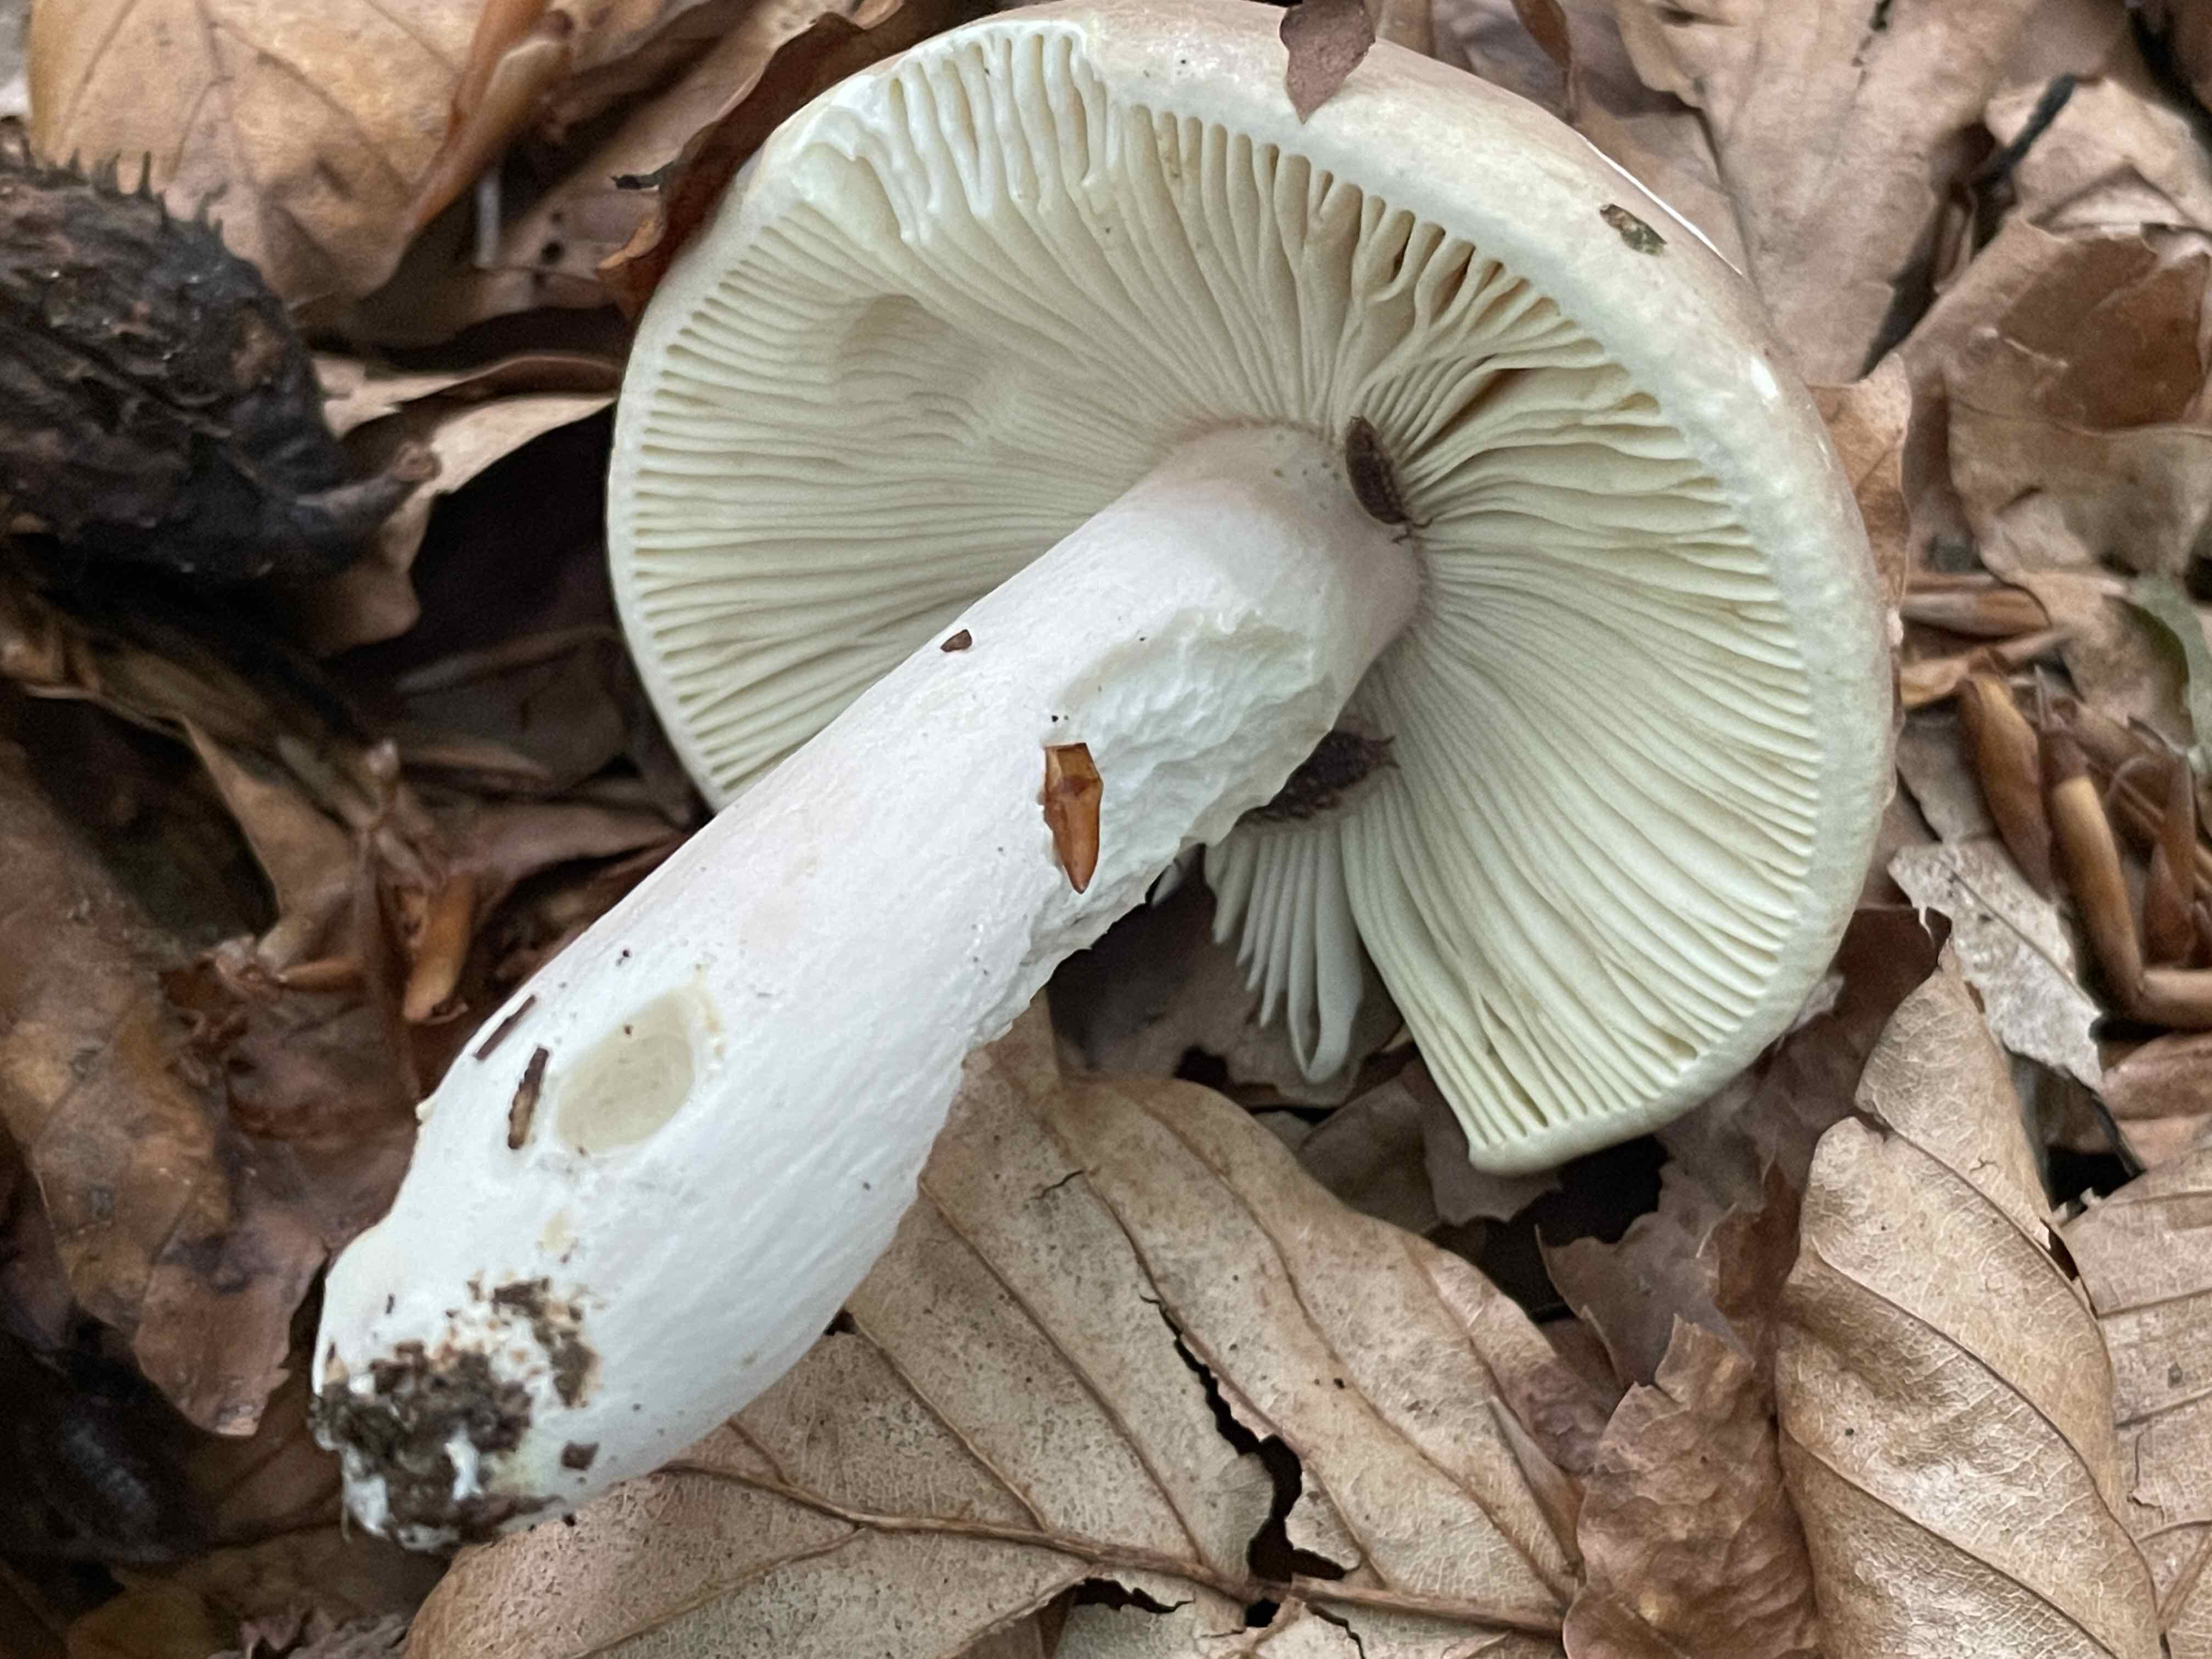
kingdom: Fungi
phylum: Basidiomycota
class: Agaricomycetes
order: Russulales
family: Russulaceae
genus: Russula
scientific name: Russula olivacea
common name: stor skørhat
